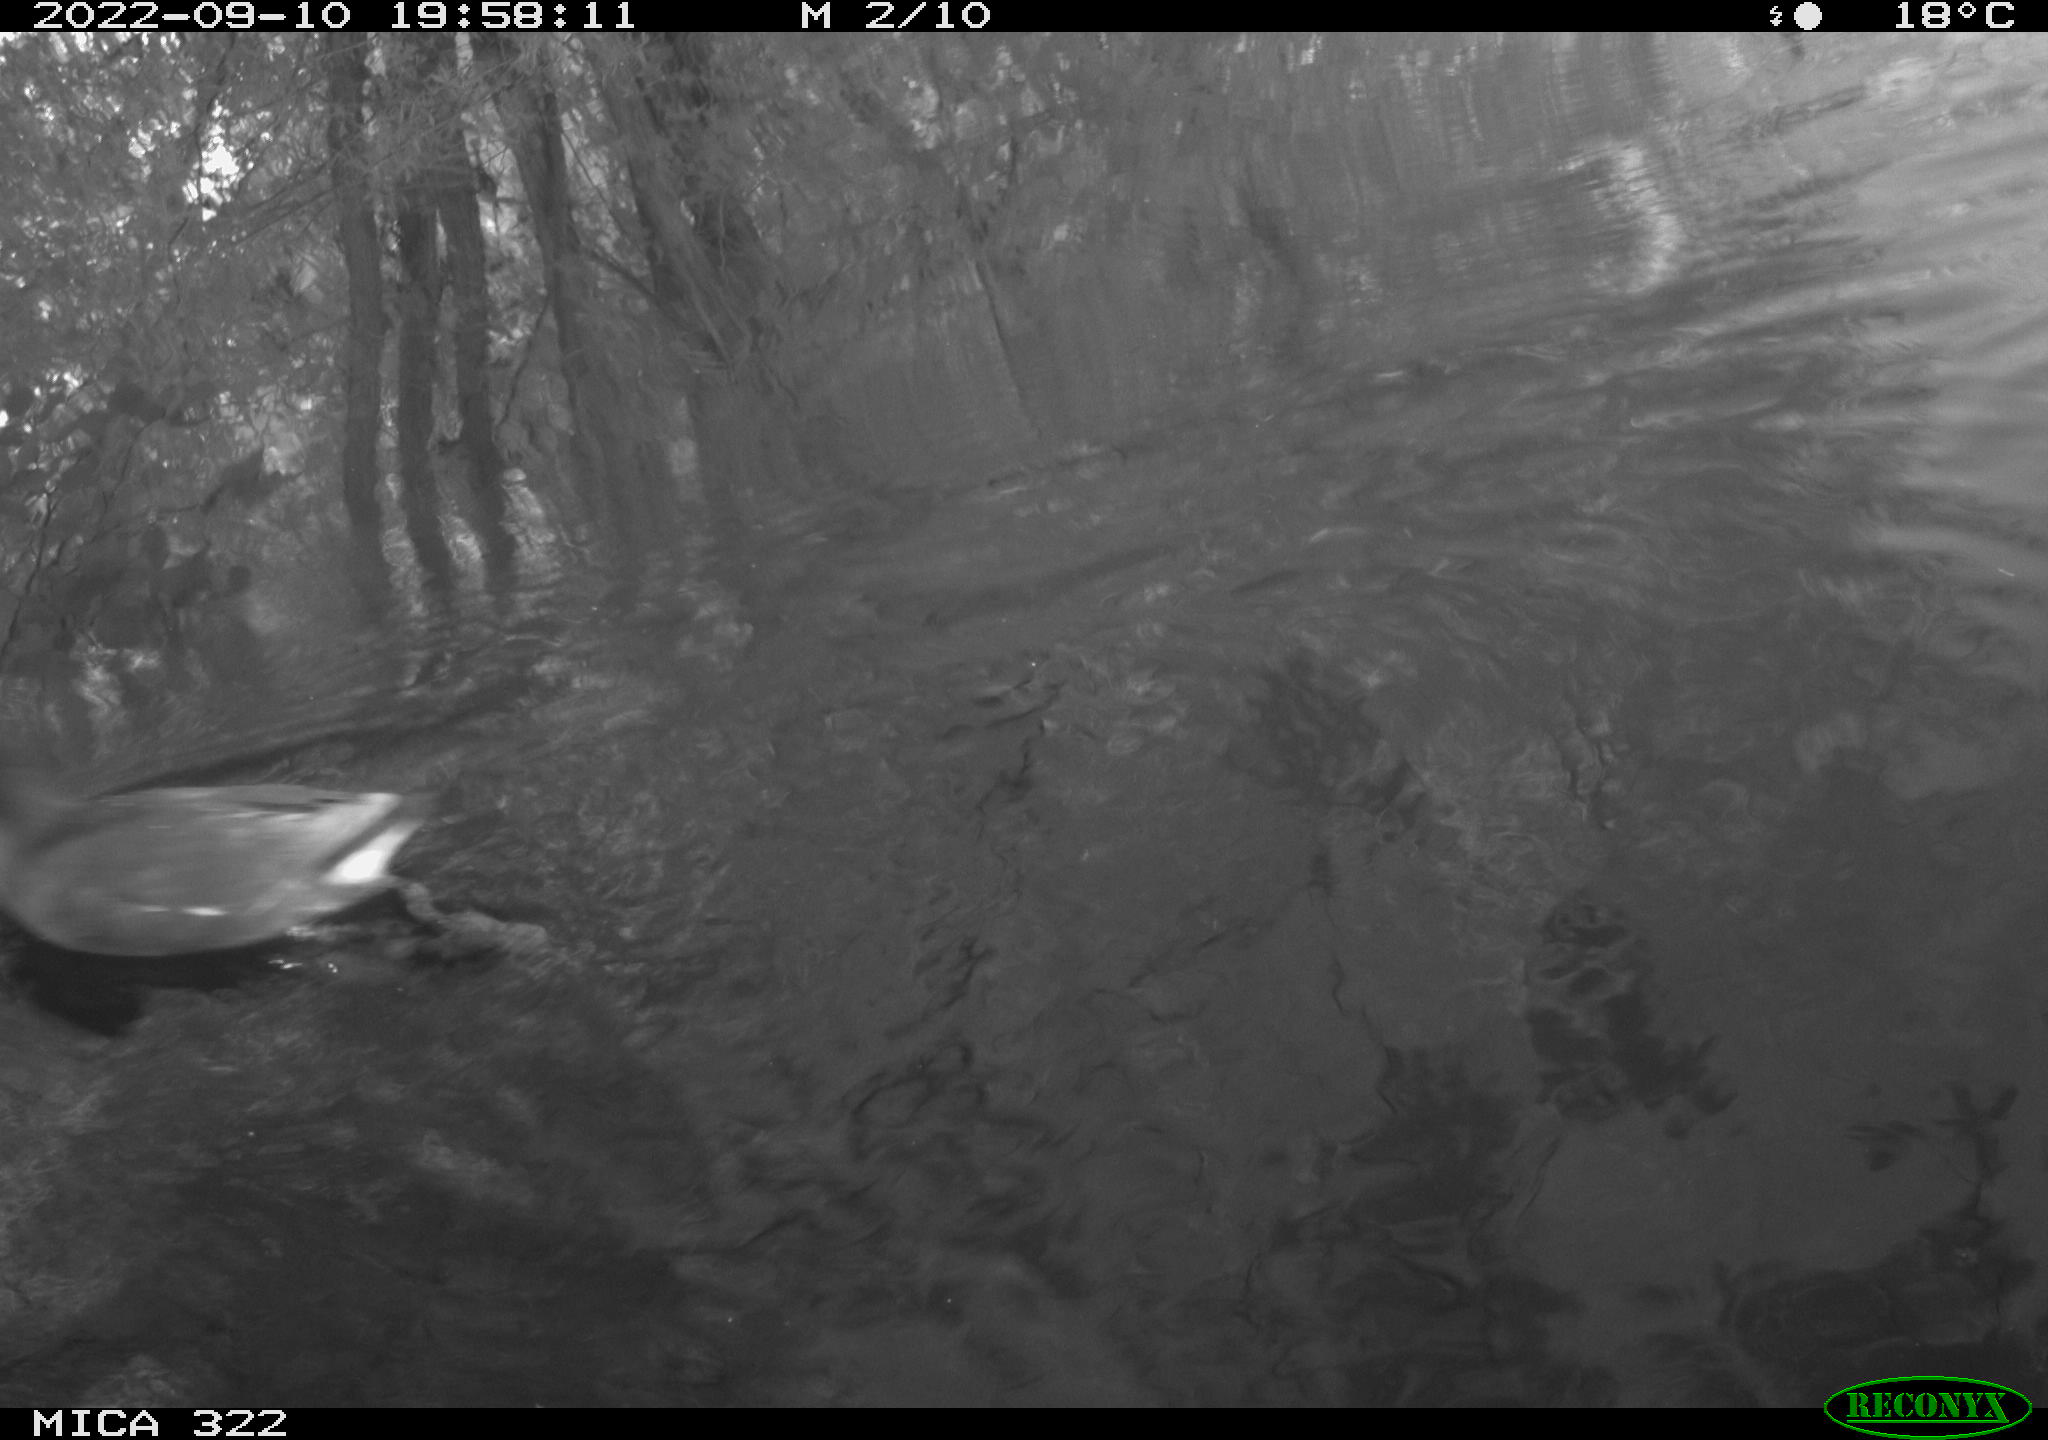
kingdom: Animalia
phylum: Chordata
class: Aves
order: Gruiformes
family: Rallidae
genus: Gallinula
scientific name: Gallinula chloropus
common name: Common moorhen
